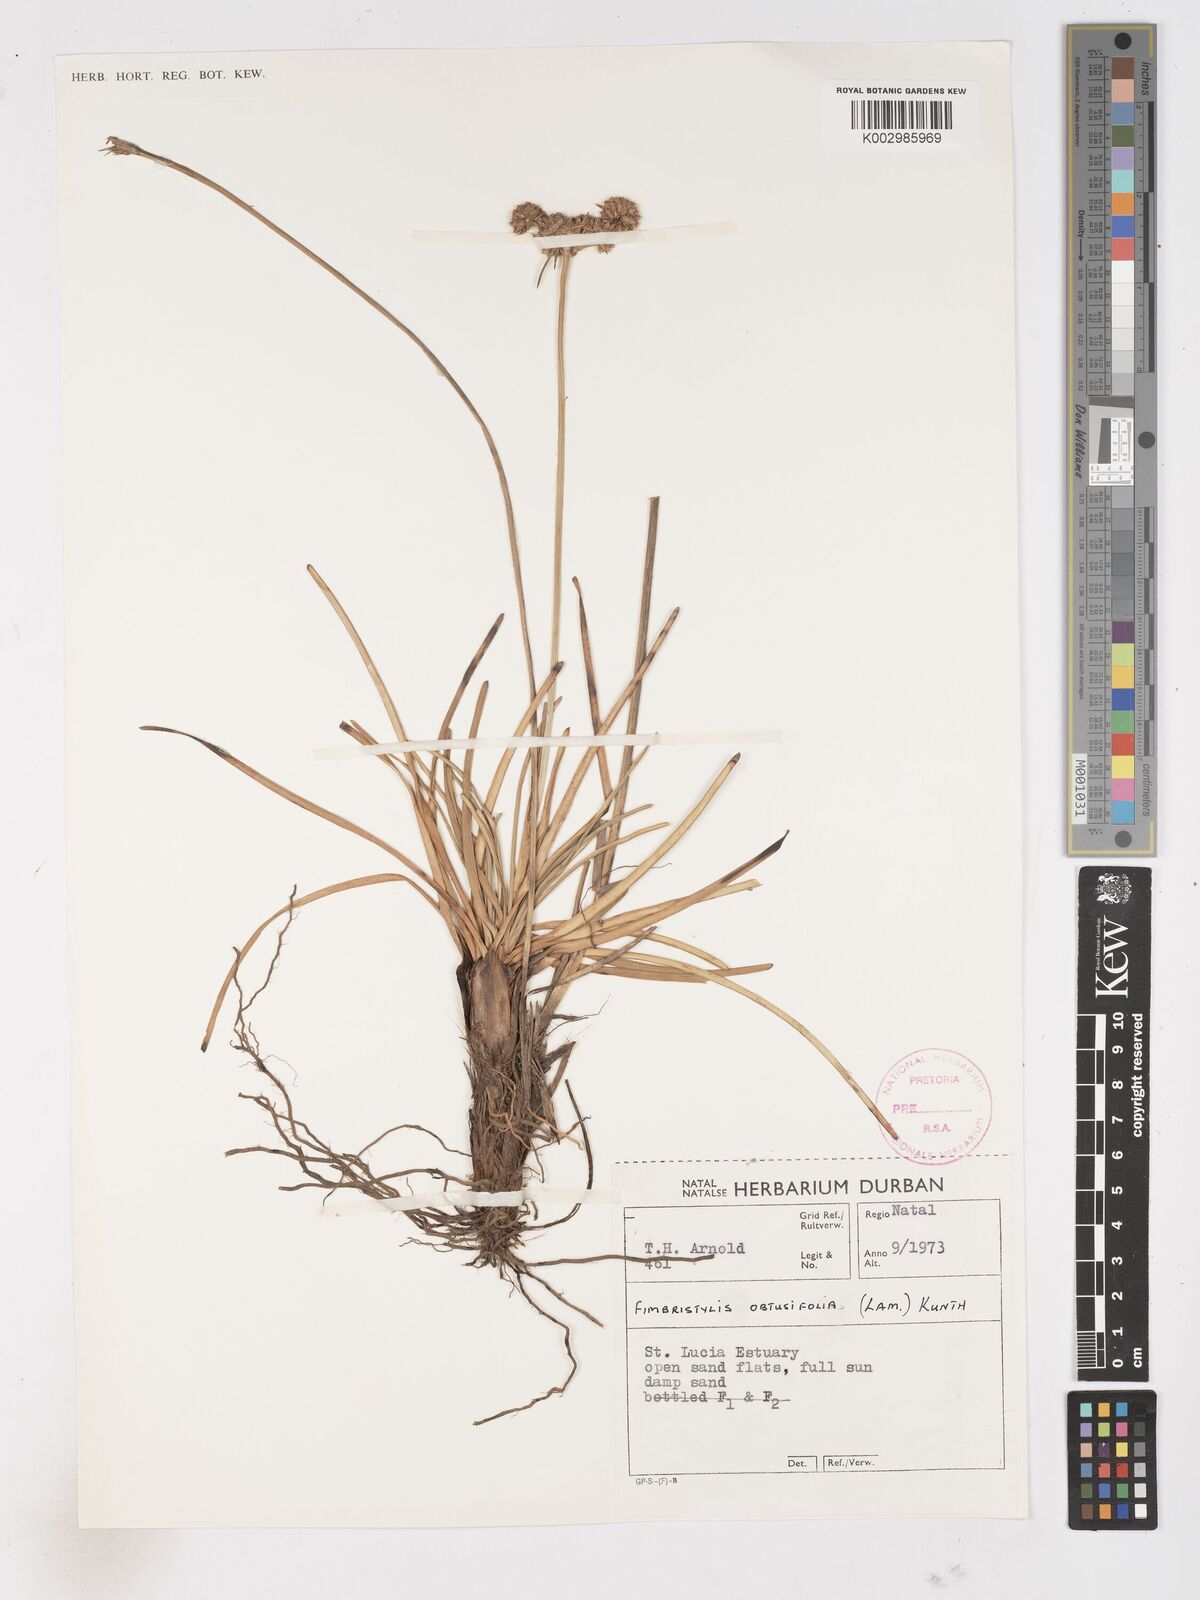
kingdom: Plantae
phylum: Tracheophyta
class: Liliopsida
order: Poales
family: Cyperaceae
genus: Fimbristylis
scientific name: Fimbristylis cymosa
